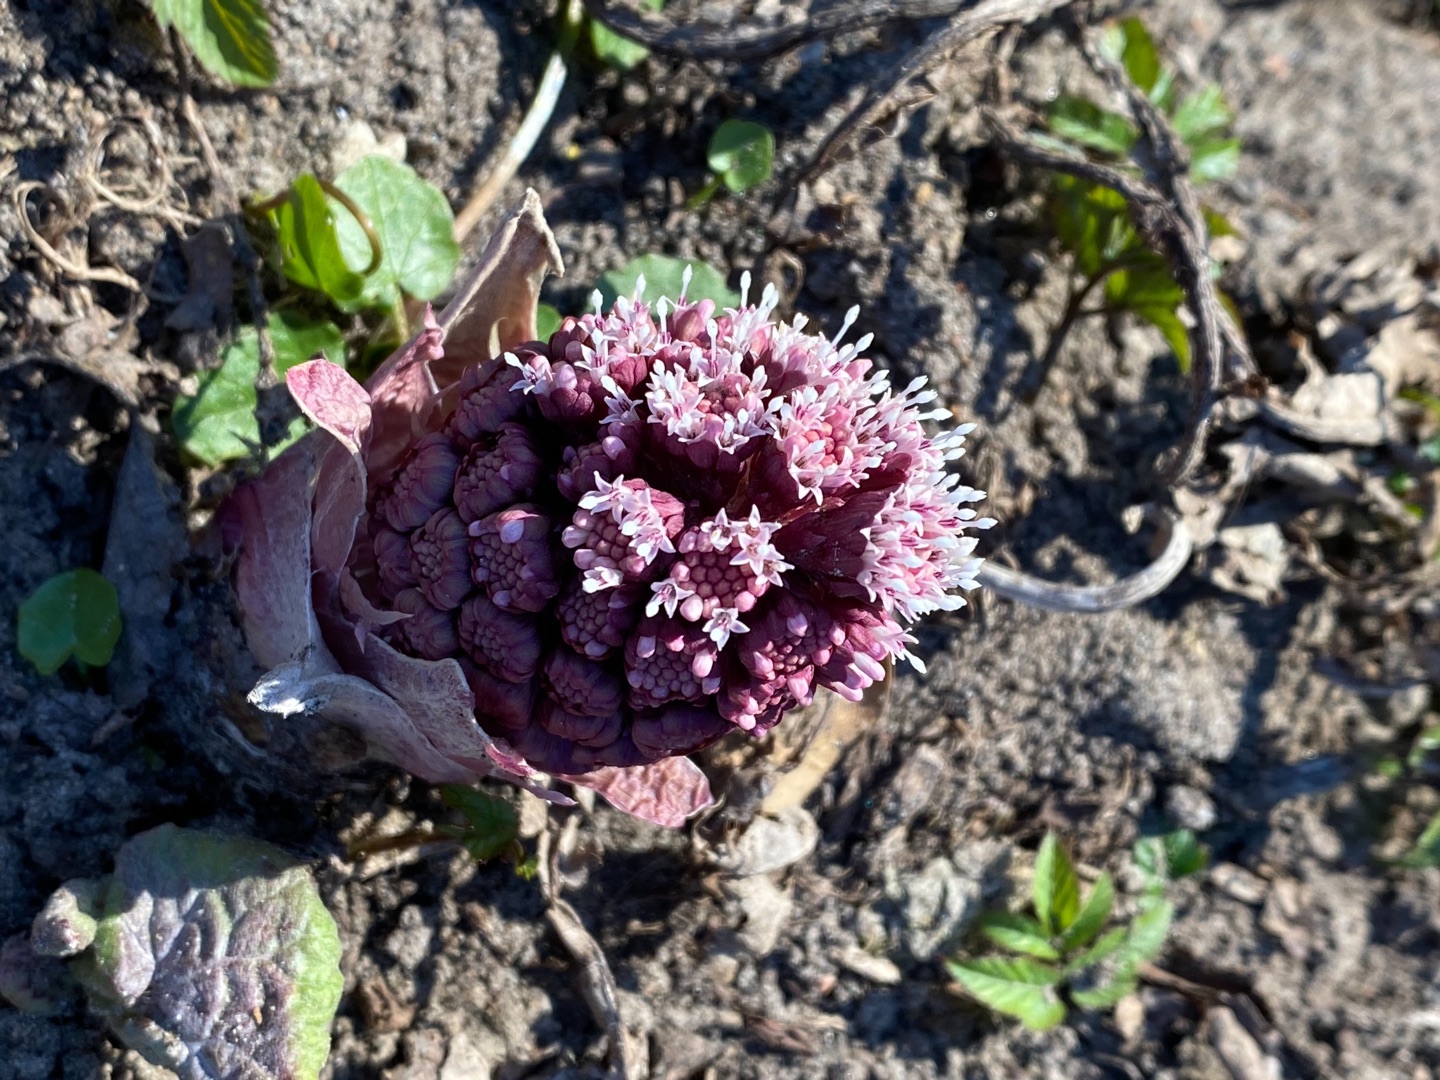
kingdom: Plantae
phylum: Tracheophyta
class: Magnoliopsida
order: Asterales
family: Asteraceae
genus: Petasites
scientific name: Petasites hybridus
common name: Rød hestehov
